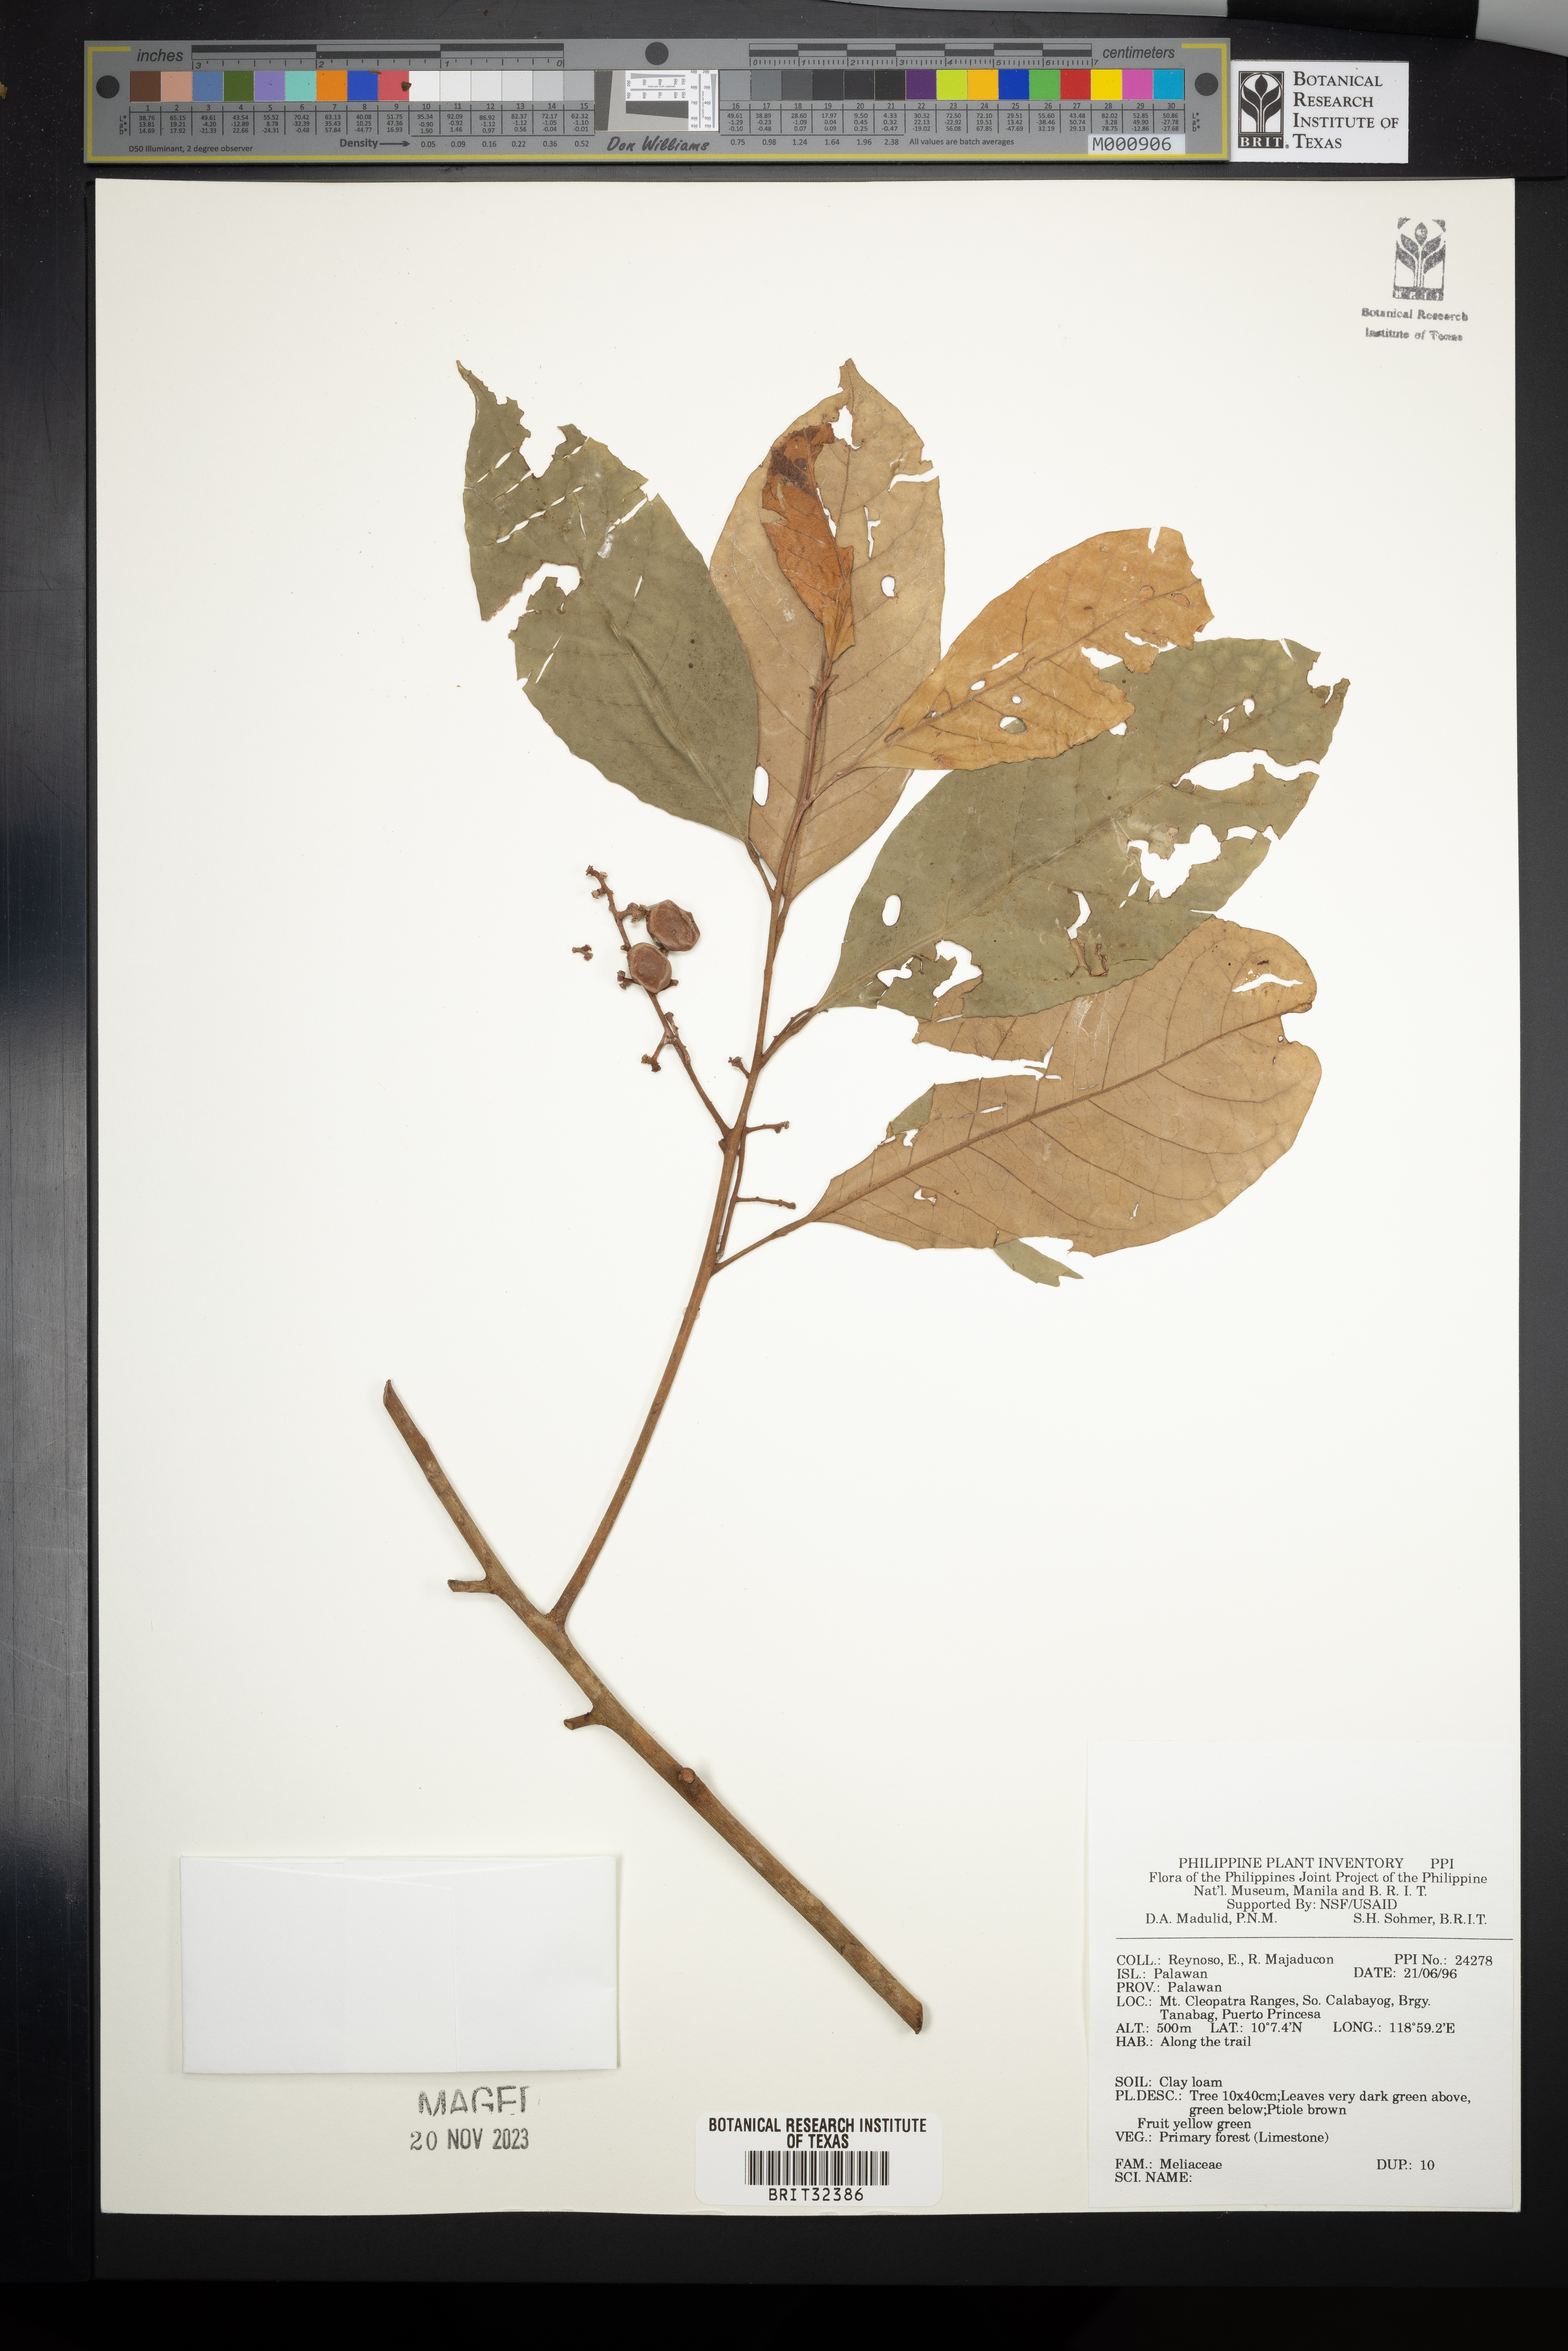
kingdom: Plantae
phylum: Tracheophyta
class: Magnoliopsida
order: Sapindales
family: Meliaceae
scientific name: Meliaceae
